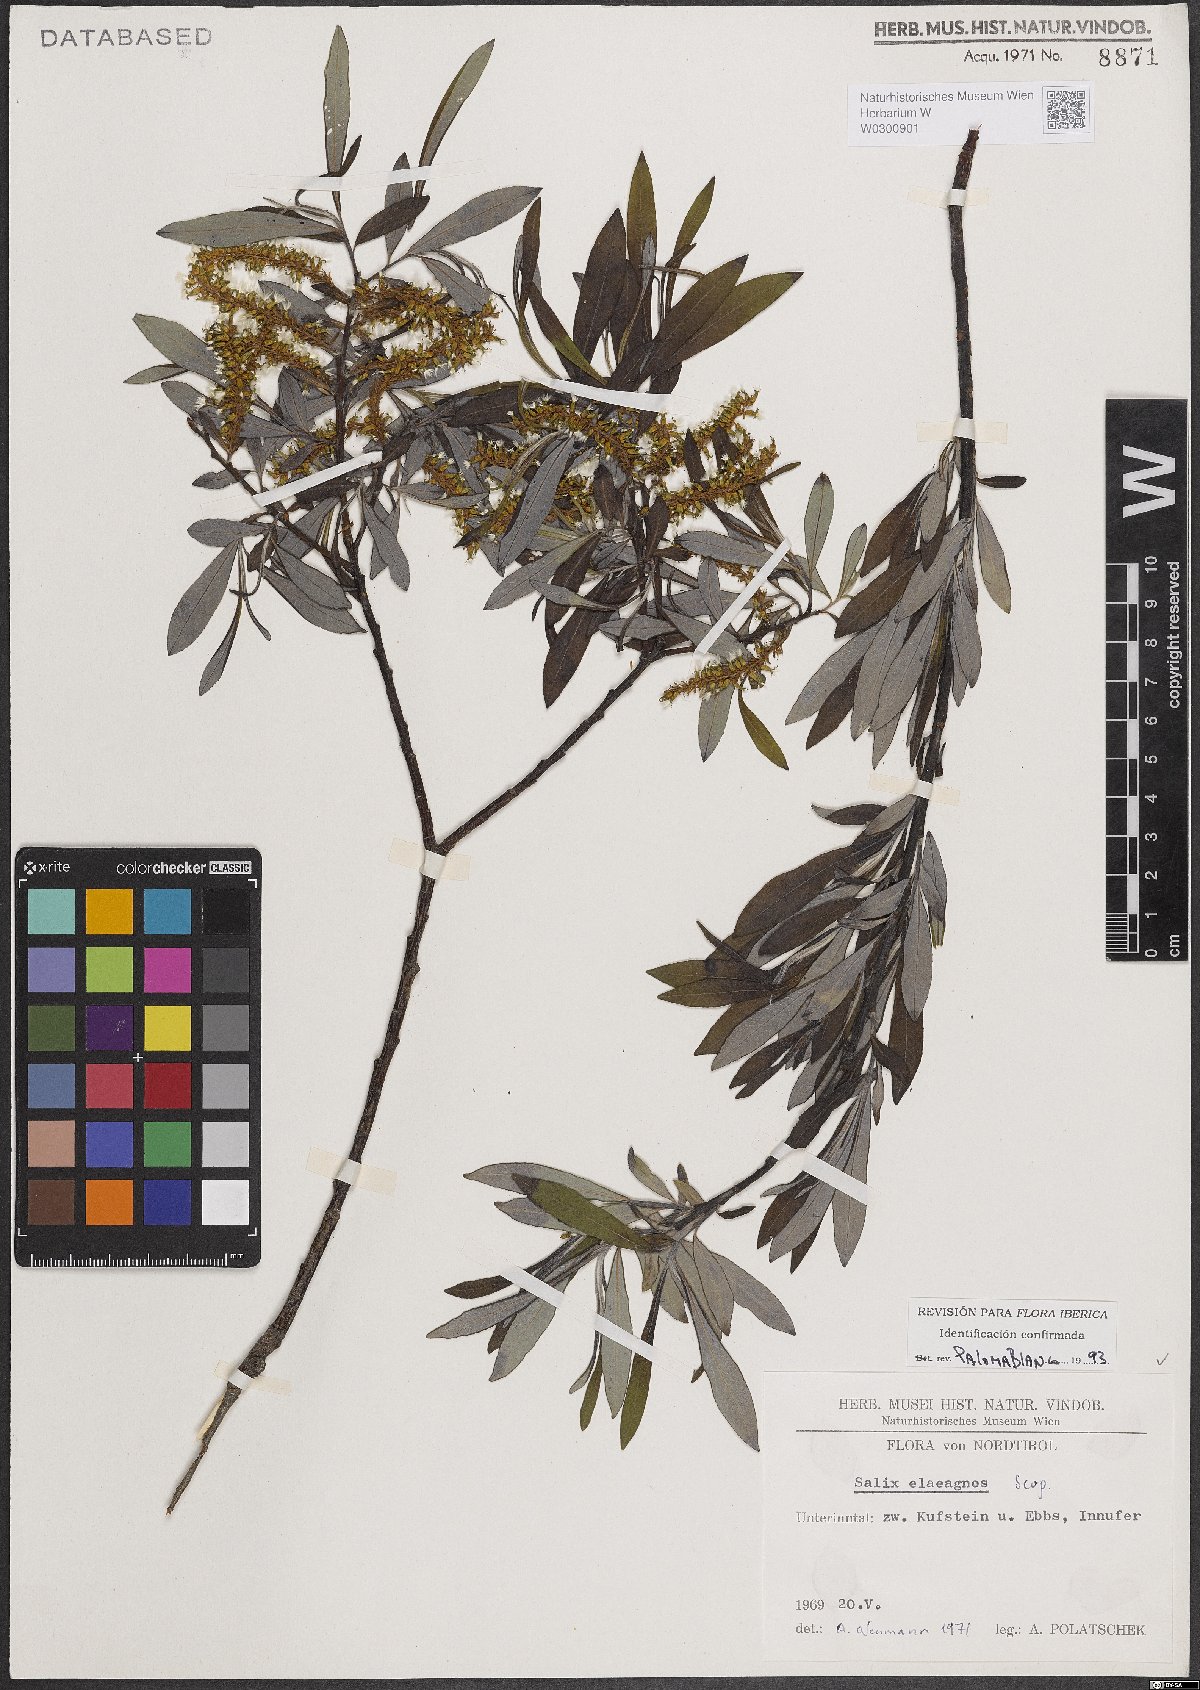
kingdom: Plantae
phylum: Tracheophyta
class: Magnoliopsida
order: Malpighiales
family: Salicaceae
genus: Salix
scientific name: Salix eleagnos
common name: Elaeagnus willow
